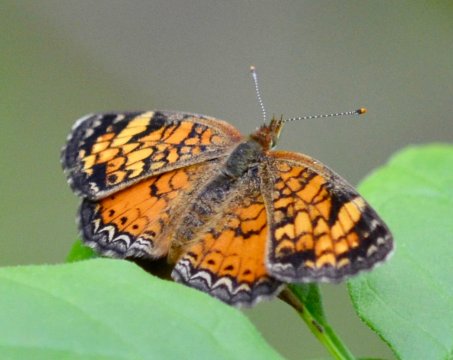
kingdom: Animalia
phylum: Arthropoda
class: Insecta
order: Lepidoptera
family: Nymphalidae
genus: Phyciodes
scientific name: Phyciodes tharos
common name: Pearl Crescent
